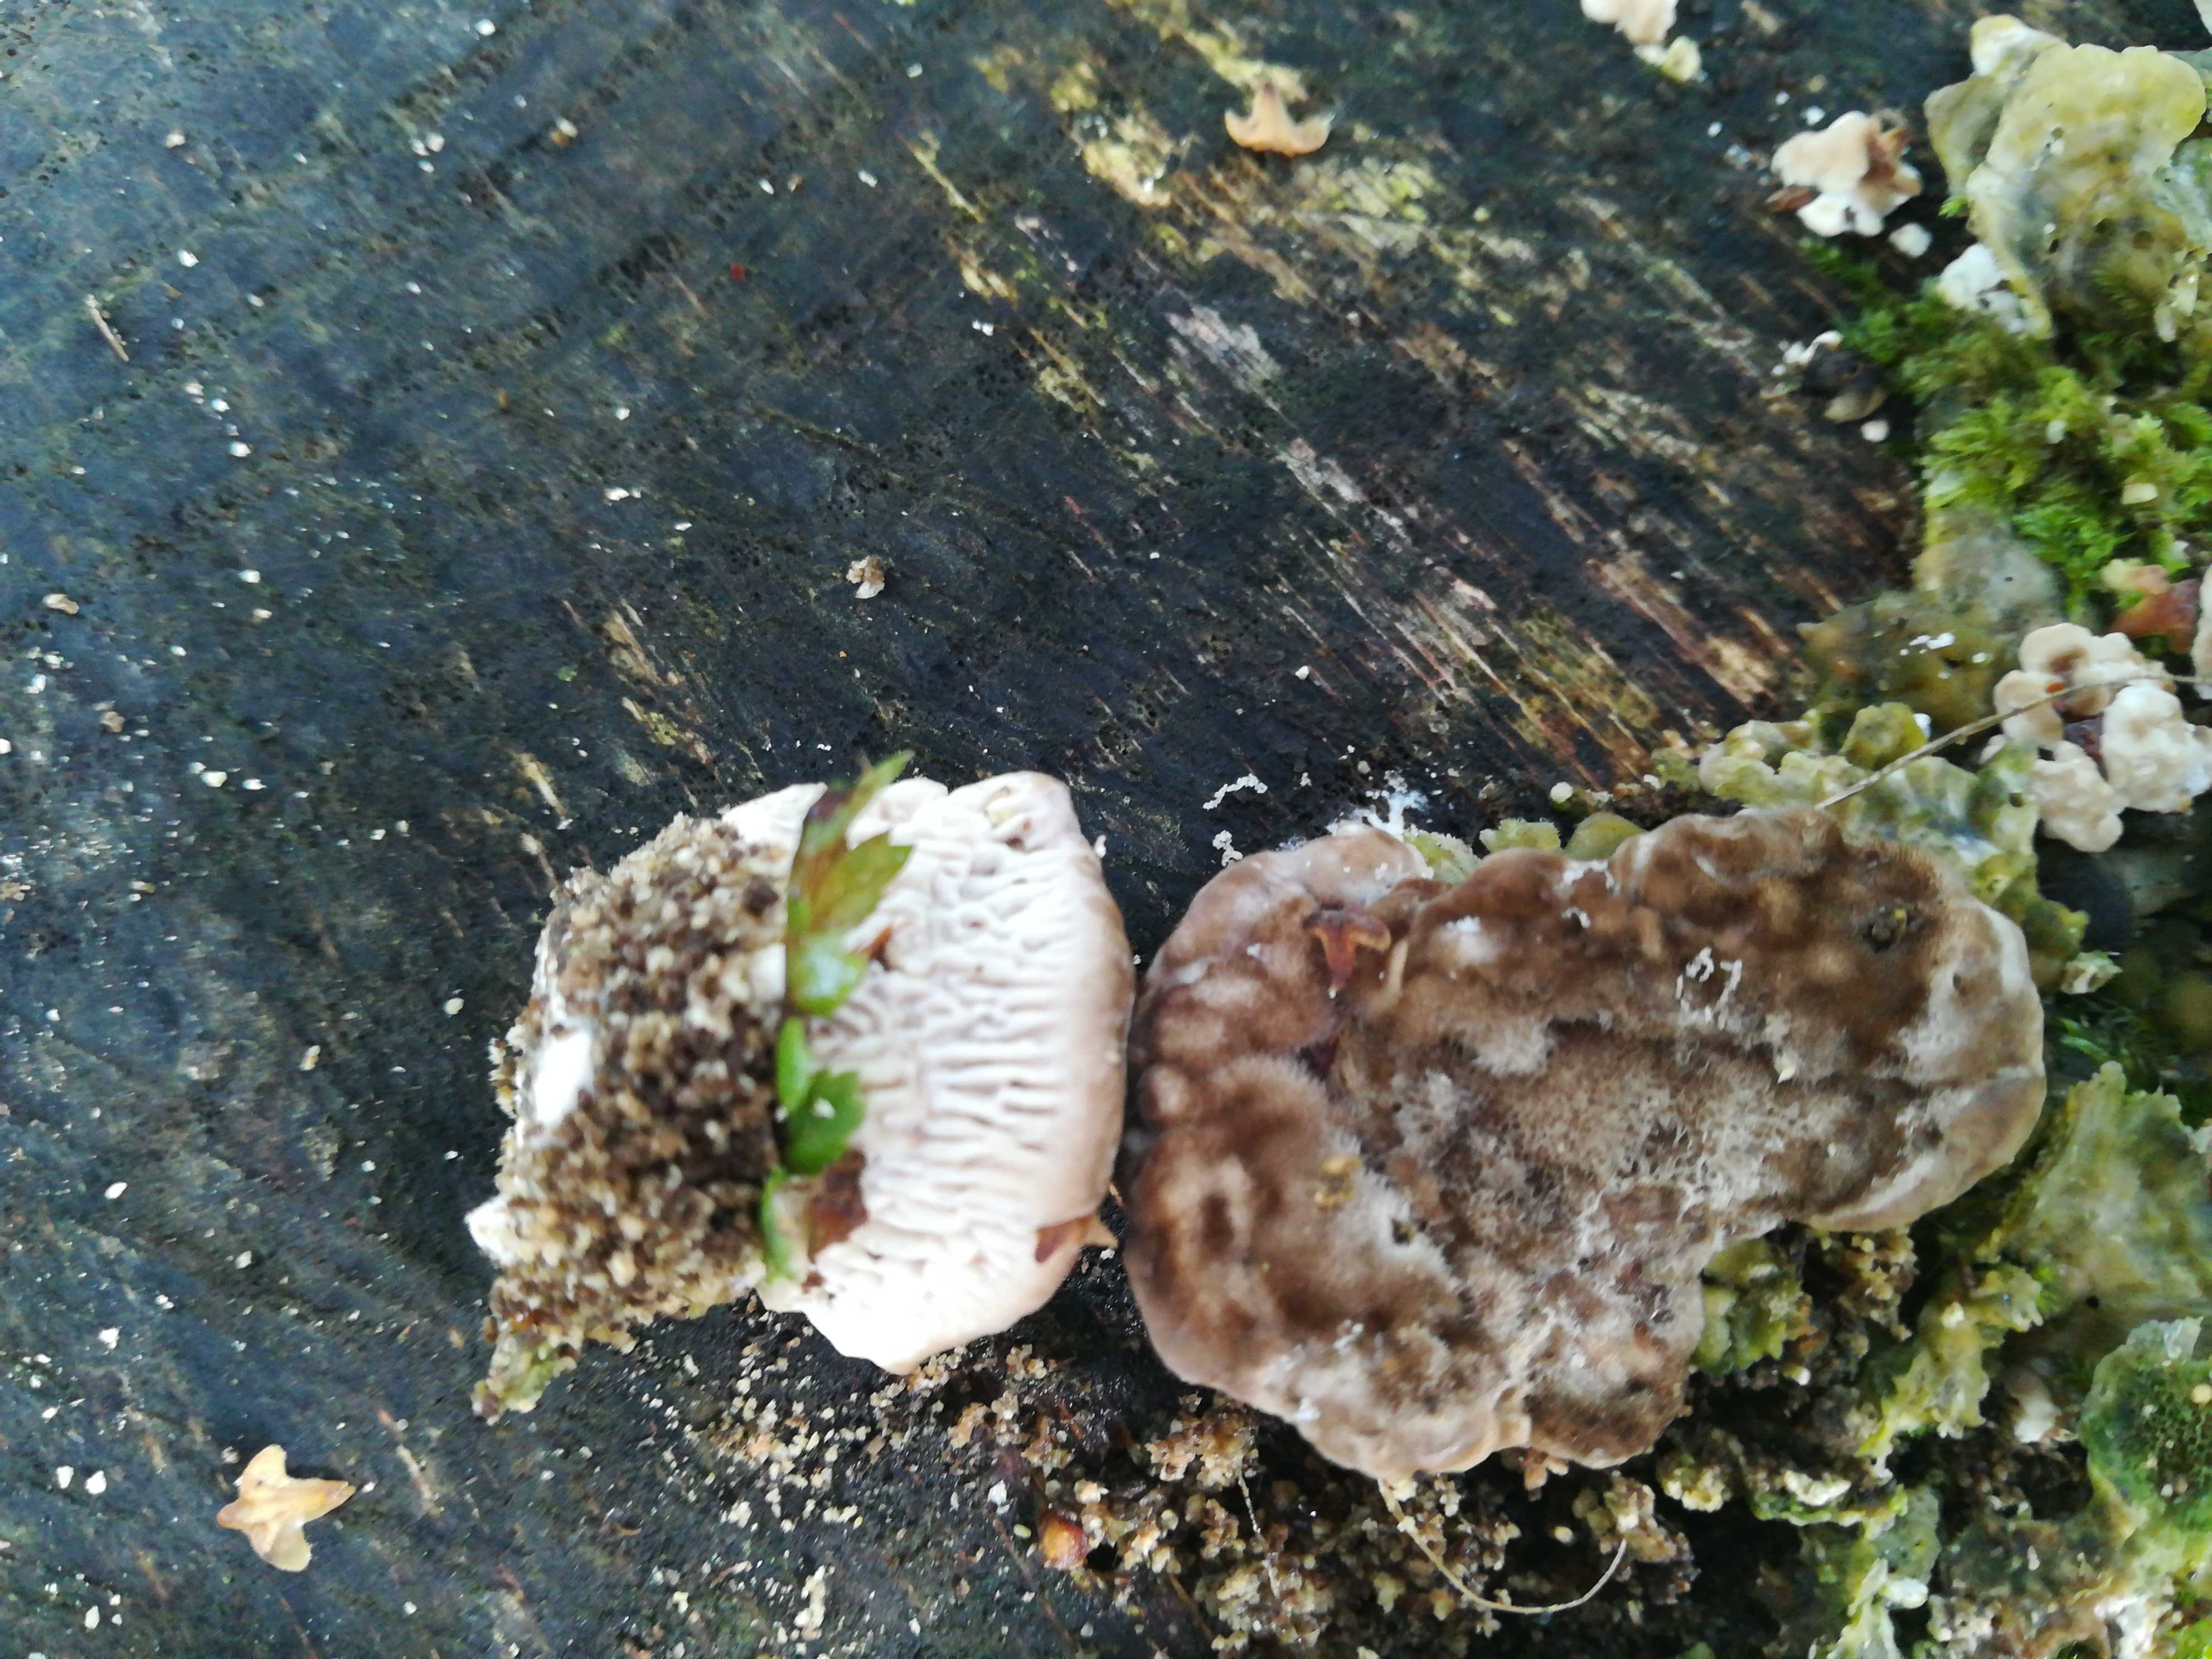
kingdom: Fungi
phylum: Basidiomycota
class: Agaricomycetes
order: Polyporales
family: Fomitopsidaceae
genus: Daedalea
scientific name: Daedalea quercina
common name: ege-labyrintsvamp
